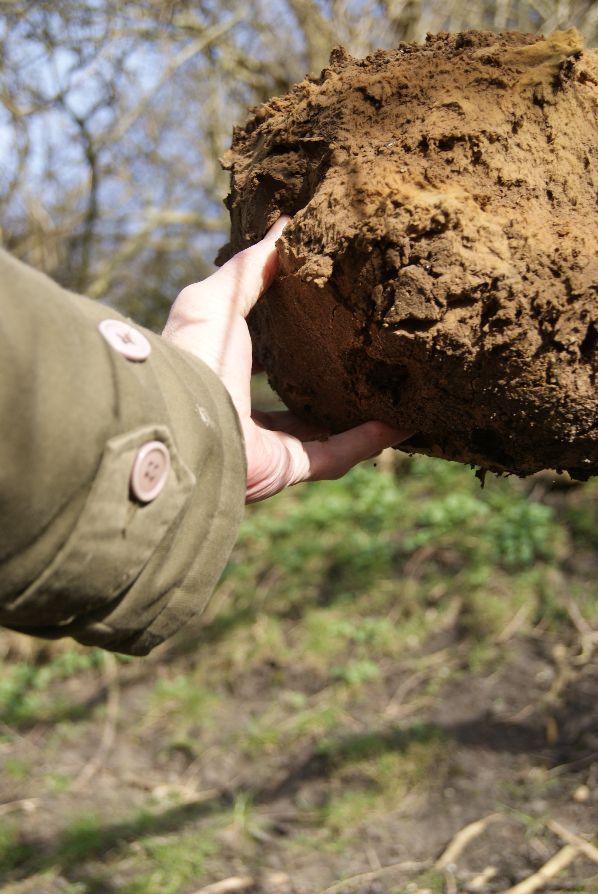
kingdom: Fungi
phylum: Basidiomycota
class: Agaricomycetes
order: Agaricales
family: Lycoperdaceae
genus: Calvatia
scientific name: Calvatia gigantea
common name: kæmpestøvbold
